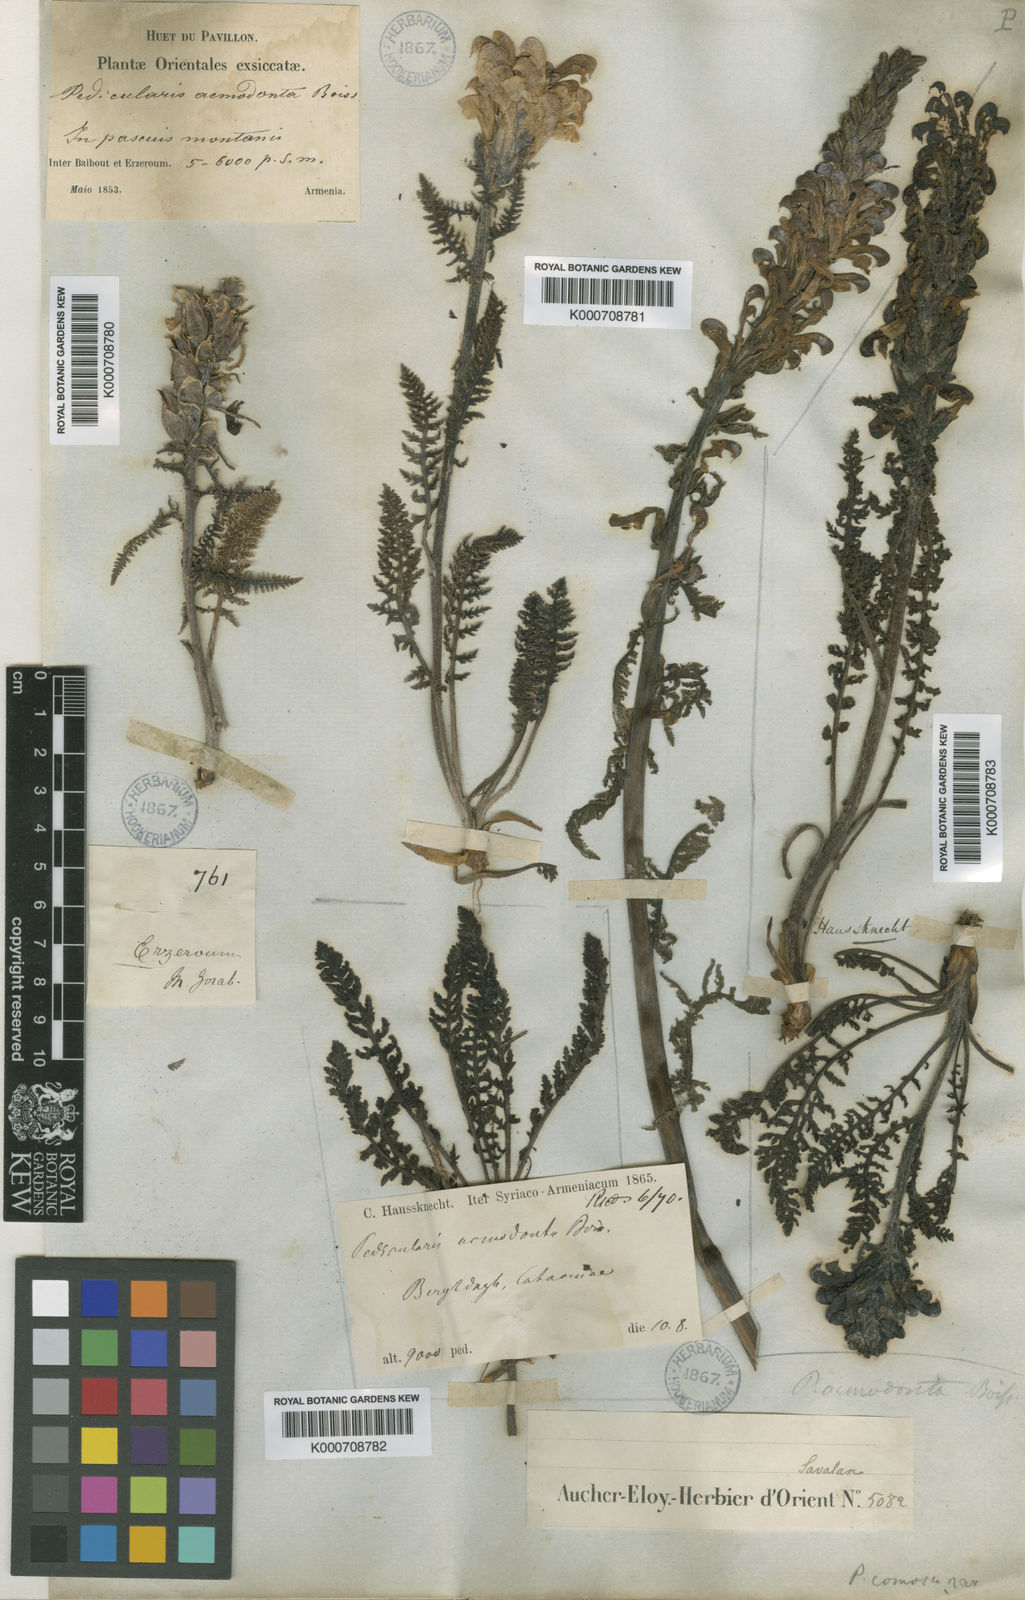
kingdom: Plantae
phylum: Tracheophyta
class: Magnoliopsida
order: Lamiales
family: Orobanchaceae
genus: Pedicularis
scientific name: Pedicularis sibthorpii
